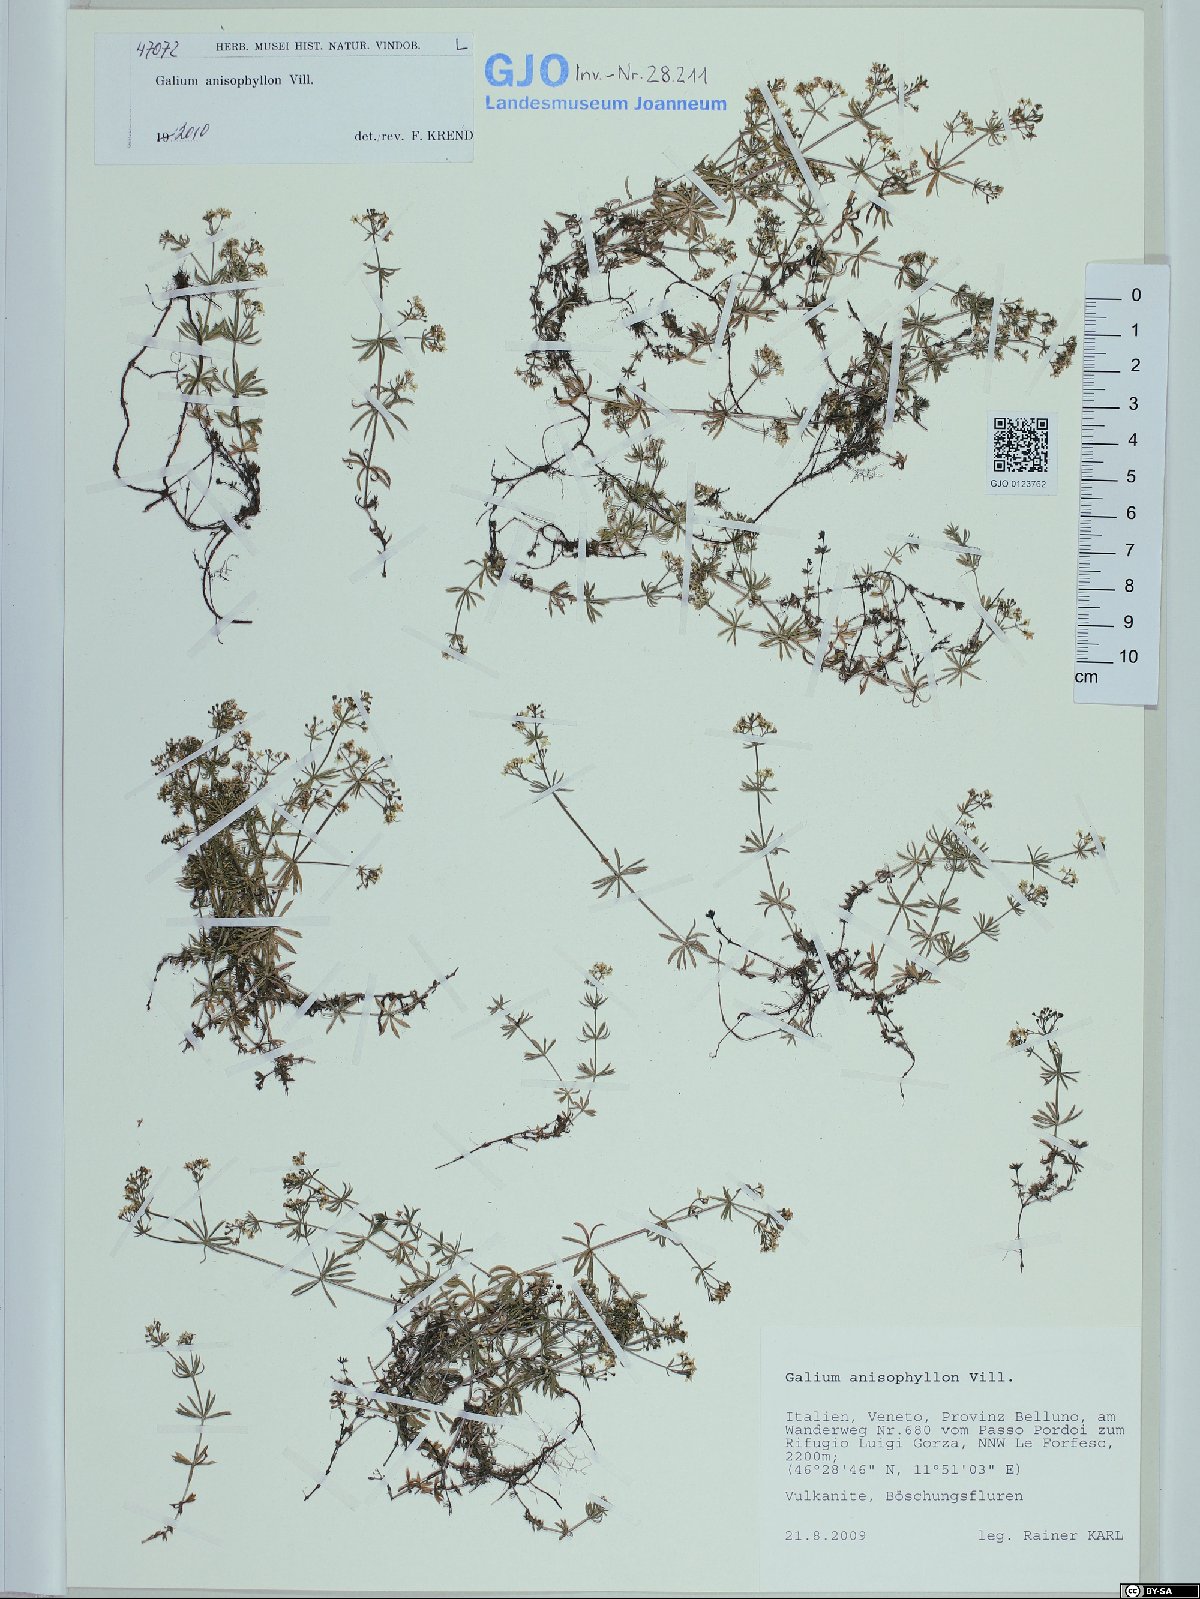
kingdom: Plantae
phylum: Tracheophyta
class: Magnoliopsida
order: Gentianales
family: Rubiaceae
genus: Galium
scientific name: Galium anisophyllon
